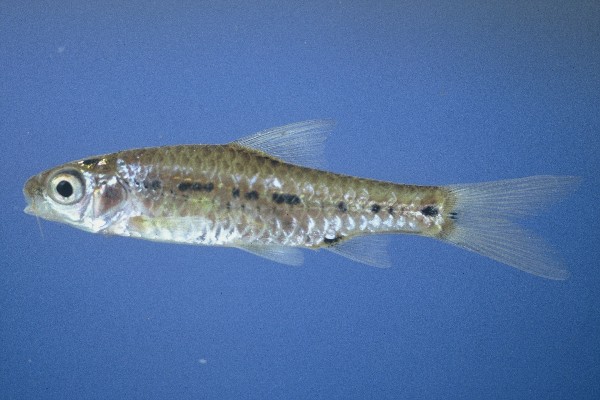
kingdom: Animalia
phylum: Chordata
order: Cypriniformes
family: Cyprinidae
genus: Enteromius
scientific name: Enteromius lineomaculatus
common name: Line-spotted barb
